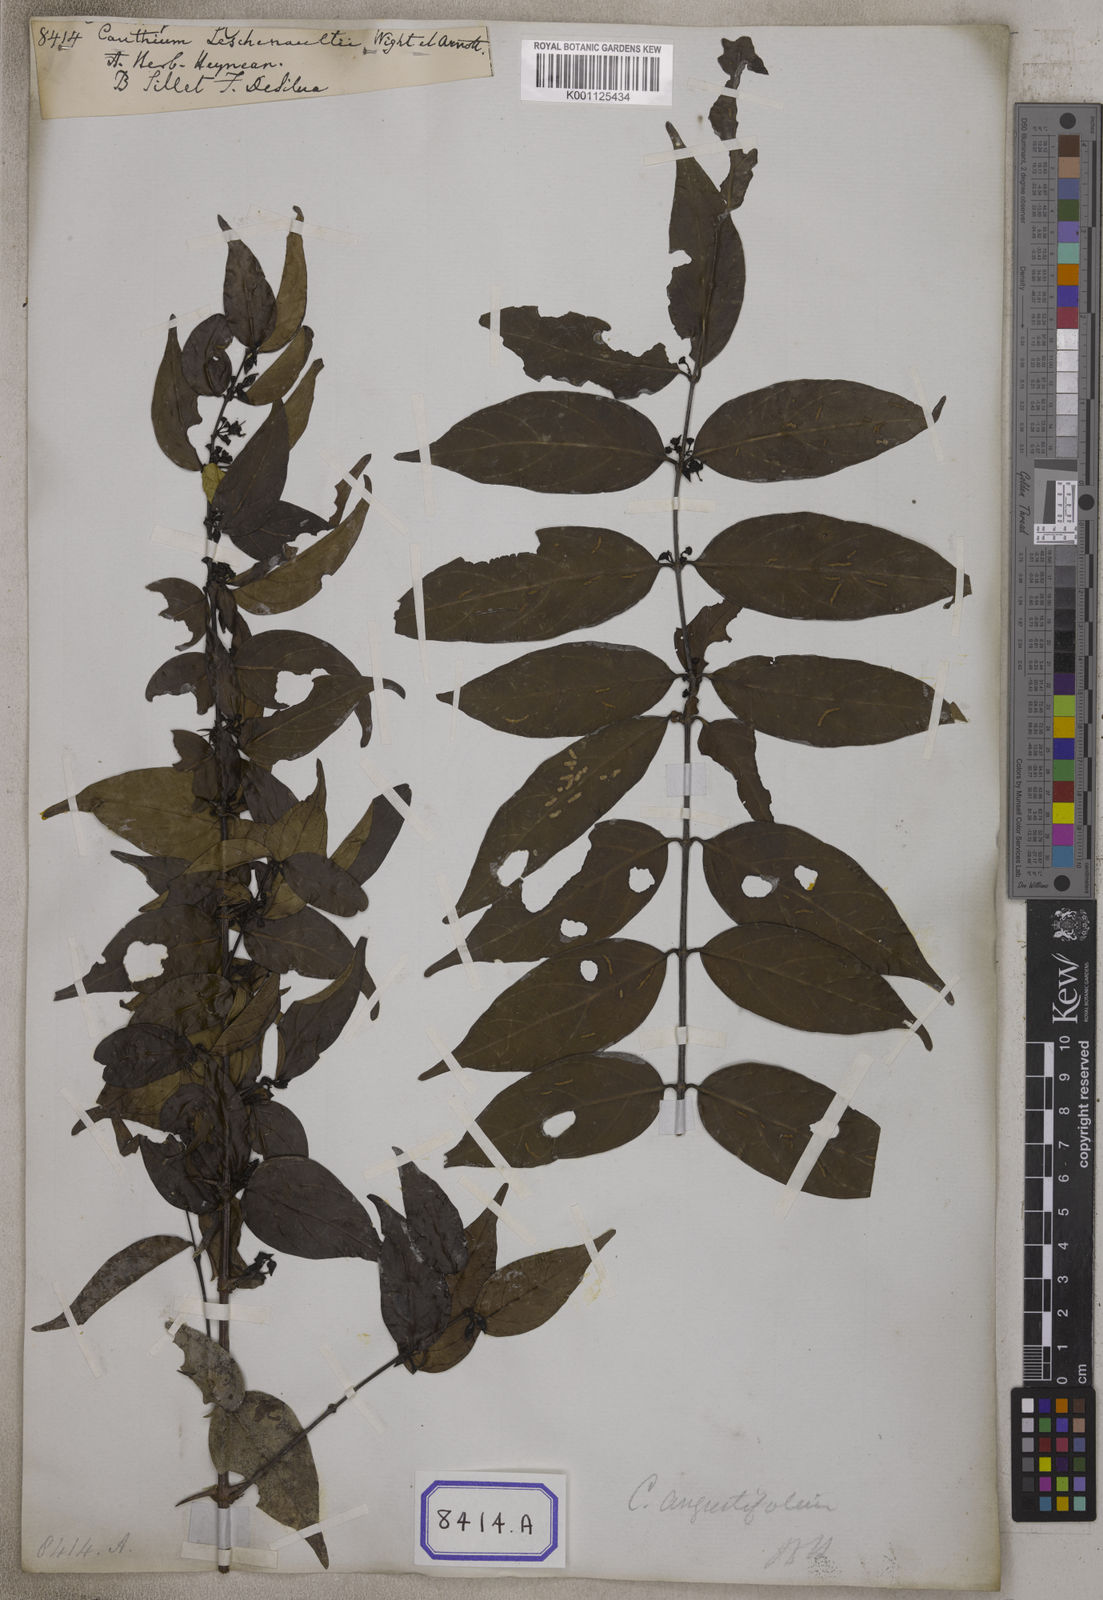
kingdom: Plantae
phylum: Tracheophyta
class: Magnoliopsida
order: Gentianales
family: Rubiaceae
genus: Canthium
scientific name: Canthium angustifolium
